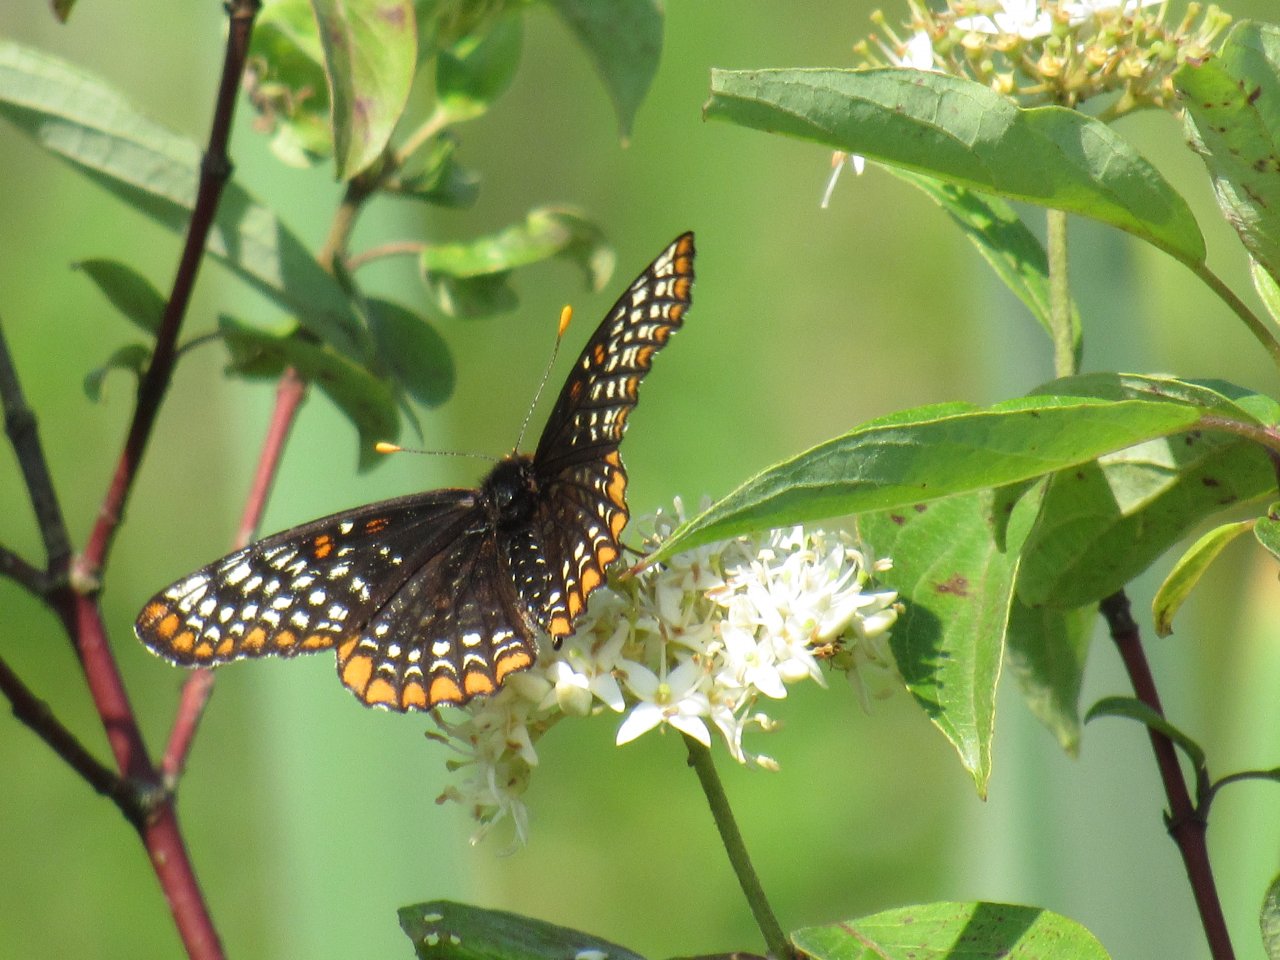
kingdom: Animalia
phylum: Arthropoda
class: Insecta
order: Lepidoptera
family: Nymphalidae
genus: Euphydryas
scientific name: Euphydryas phaeton
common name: Baltimore Checkerspot
